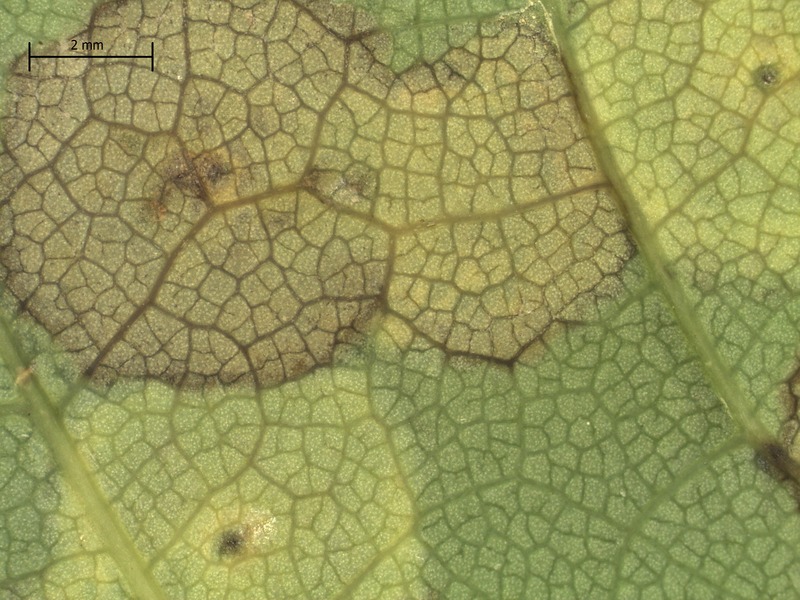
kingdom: Fungi
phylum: Ascomycota
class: Sordariomycetes
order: Diaporthales
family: Gnomoniaceae
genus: Diplodina
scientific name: Diplodina acerina
